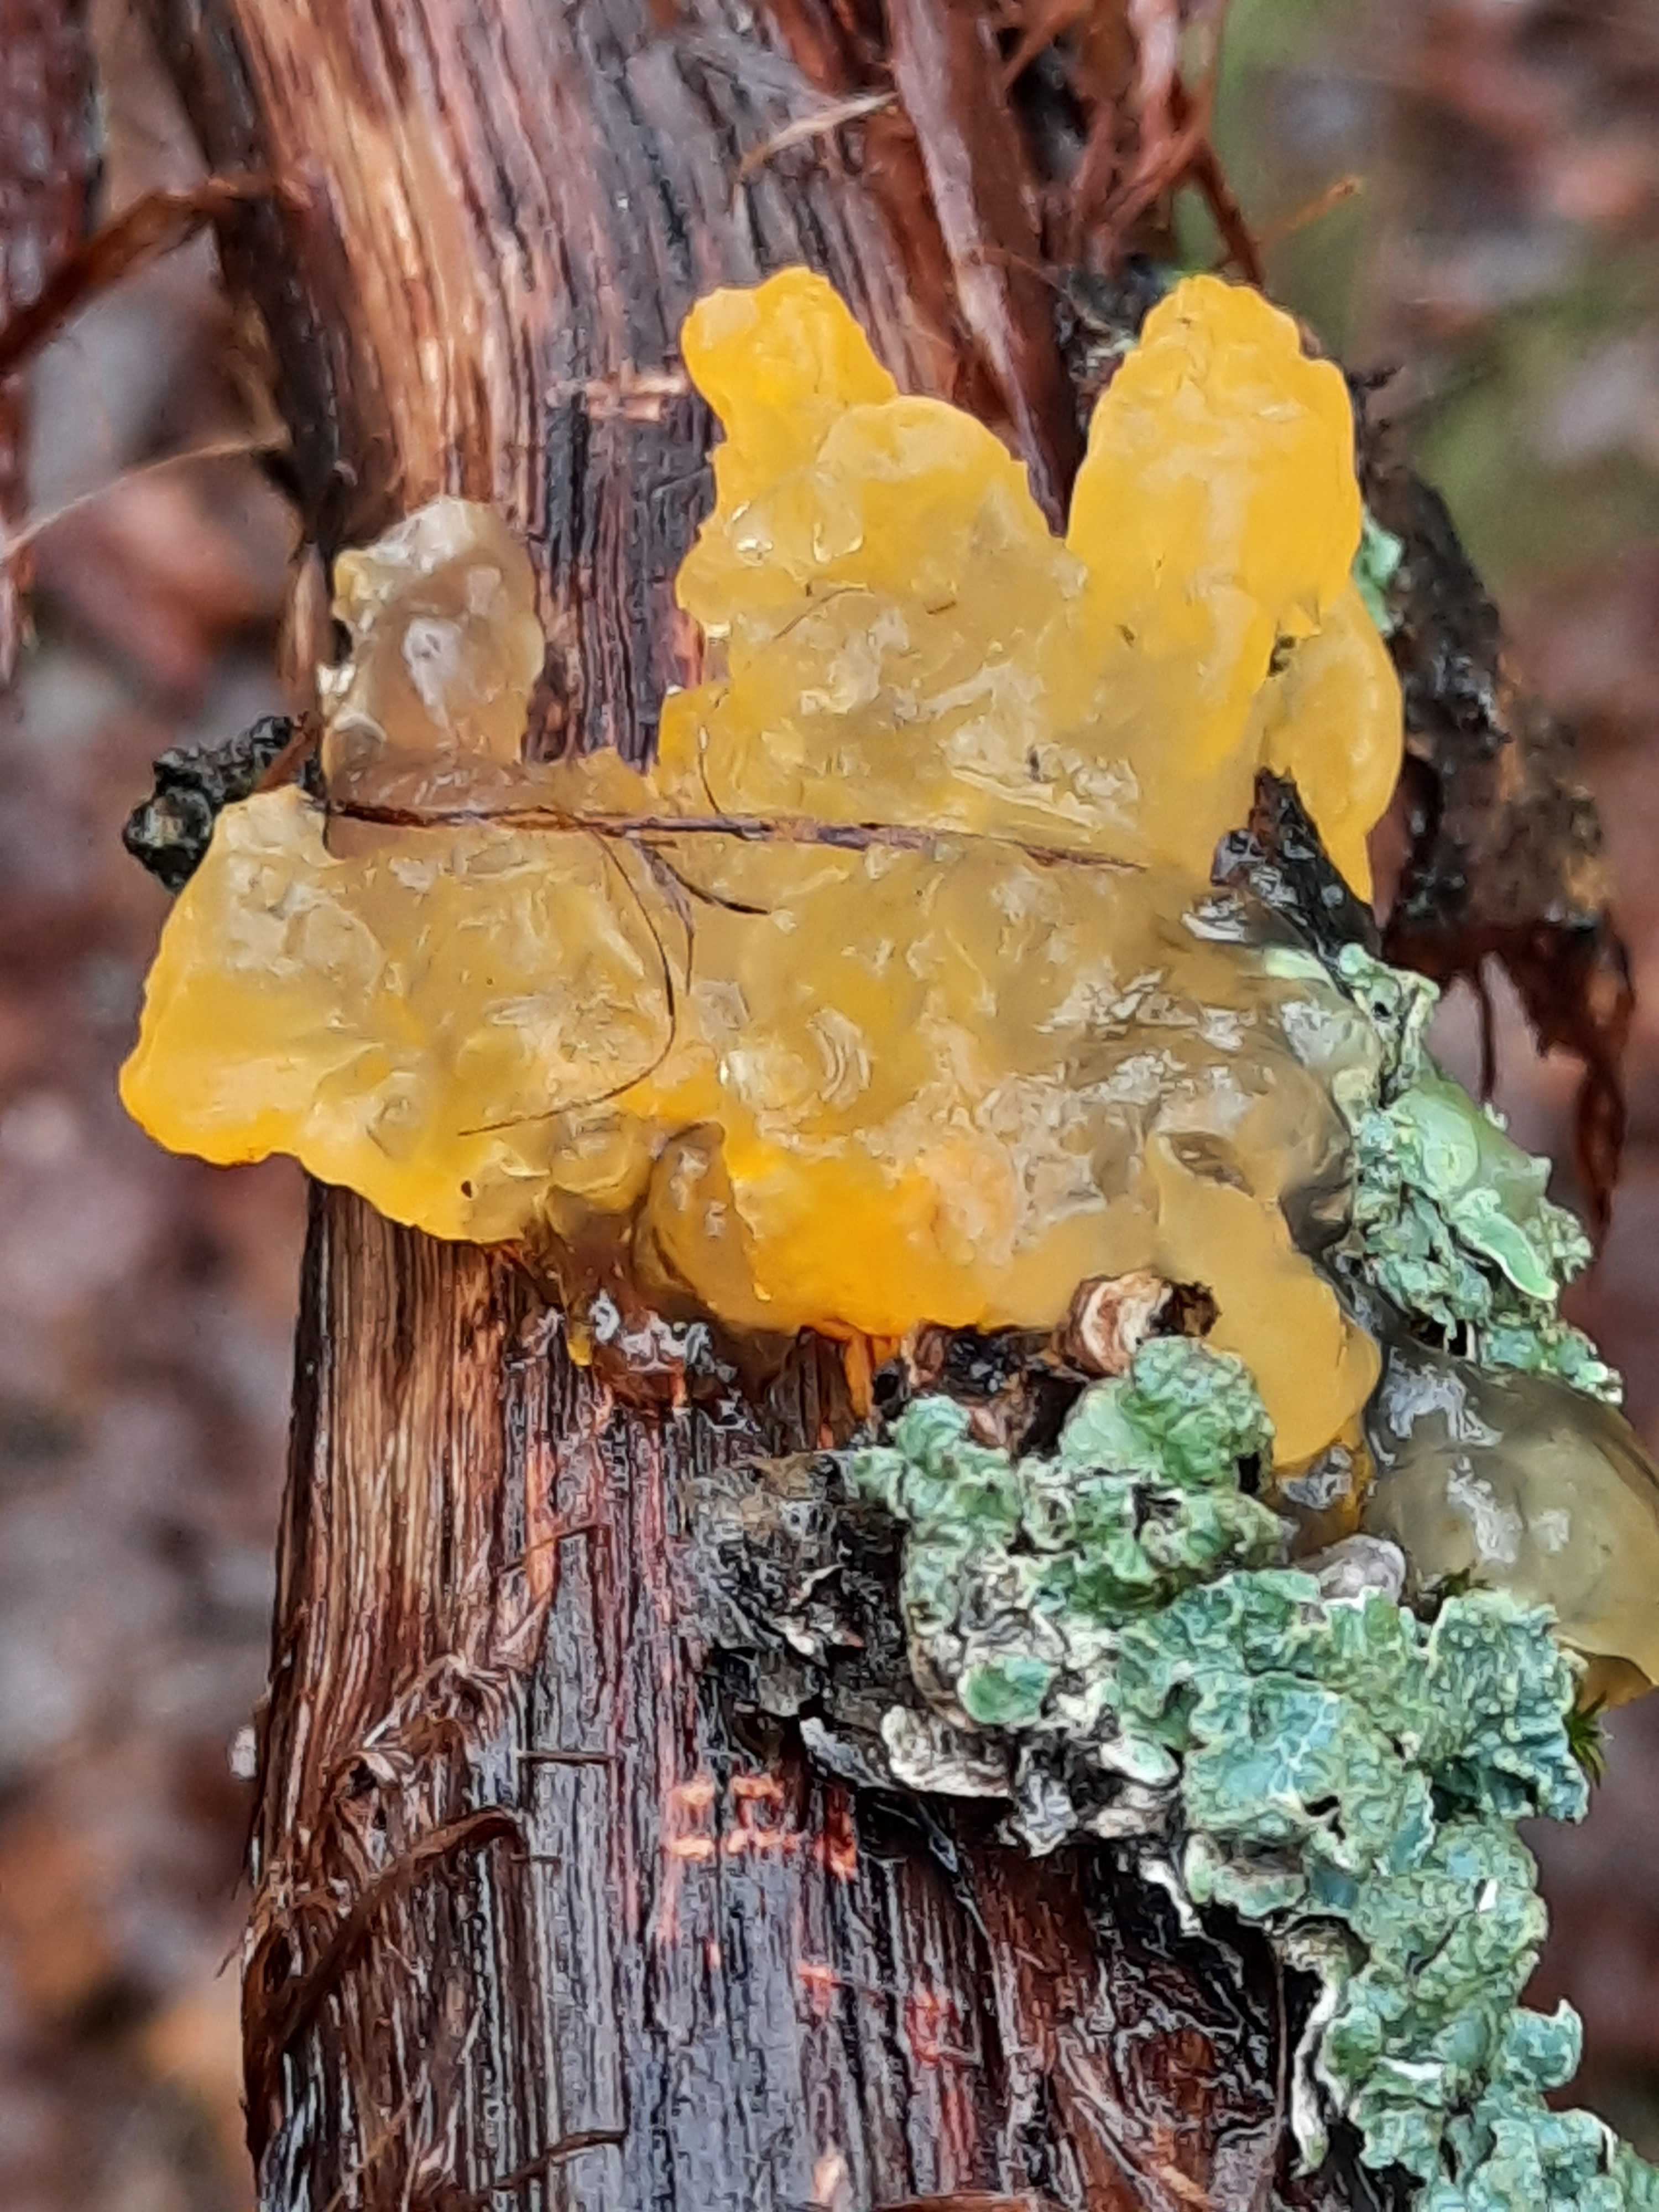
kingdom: Fungi
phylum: Basidiomycota
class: Tremellomycetes
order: Tremellales
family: Tremellaceae
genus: Tremella
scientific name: Tremella mesenterica
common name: gul bævresvamp
